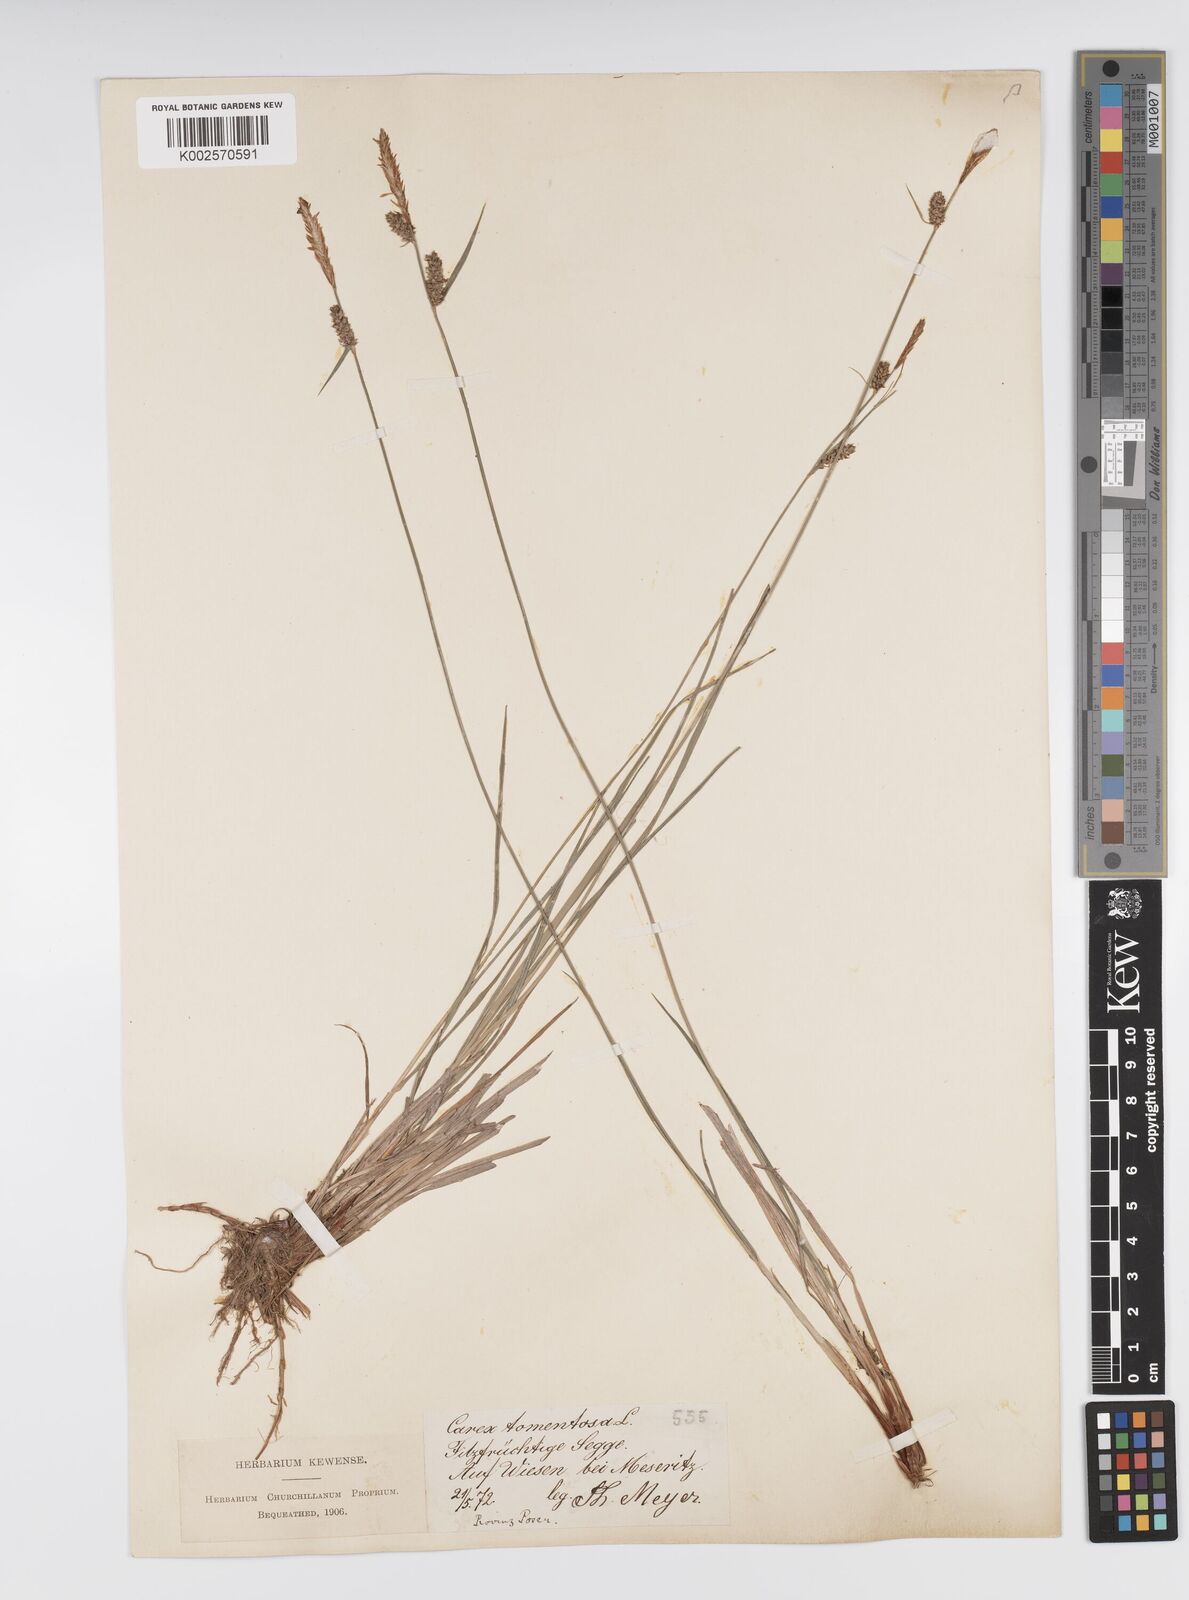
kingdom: Plantae
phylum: Tracheophyta
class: Liliopsida
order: Poales
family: Cyperaceae
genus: Carex
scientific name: Carex montana
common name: Soft-leaved sedge
